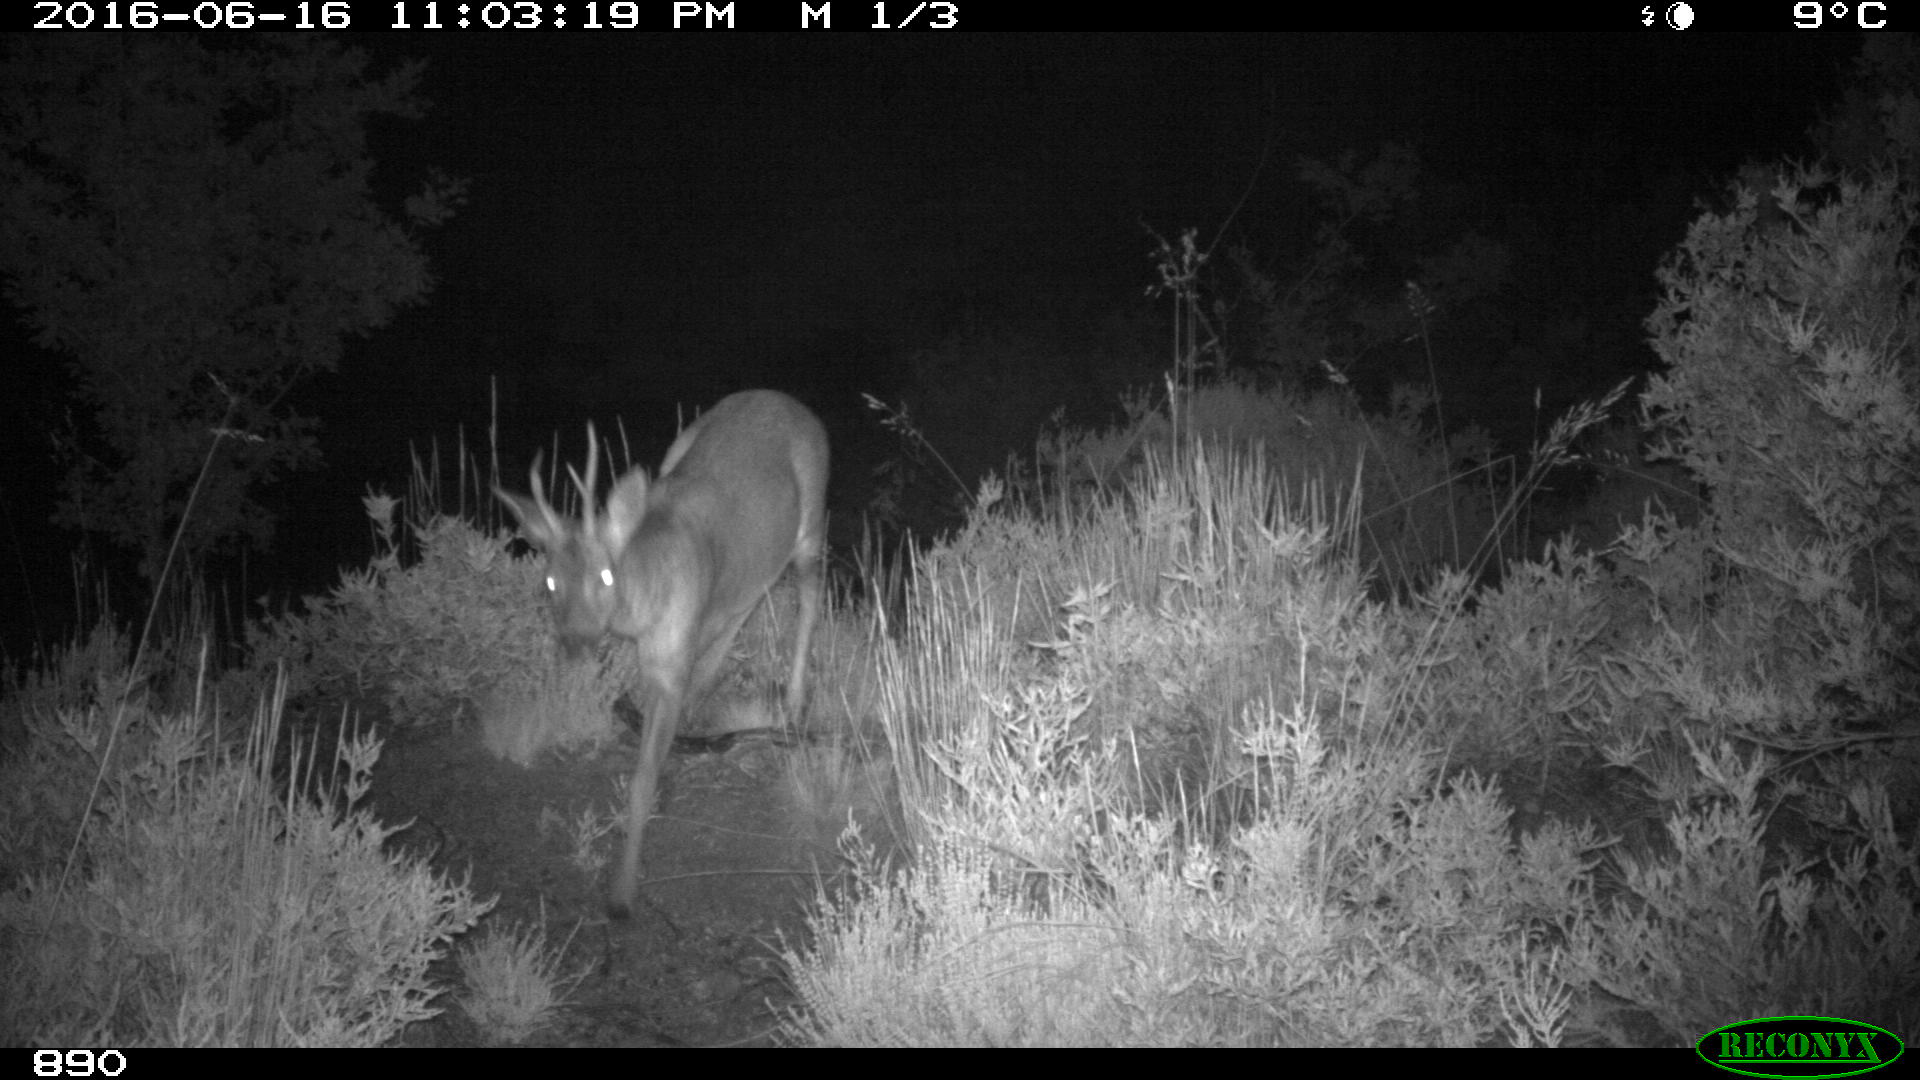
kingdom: Animalia
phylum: Chordata
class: Mammalia
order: Artiodactyla
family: Cervidae
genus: Capreolus
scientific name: Capreolus capreolus
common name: Western roe deer
